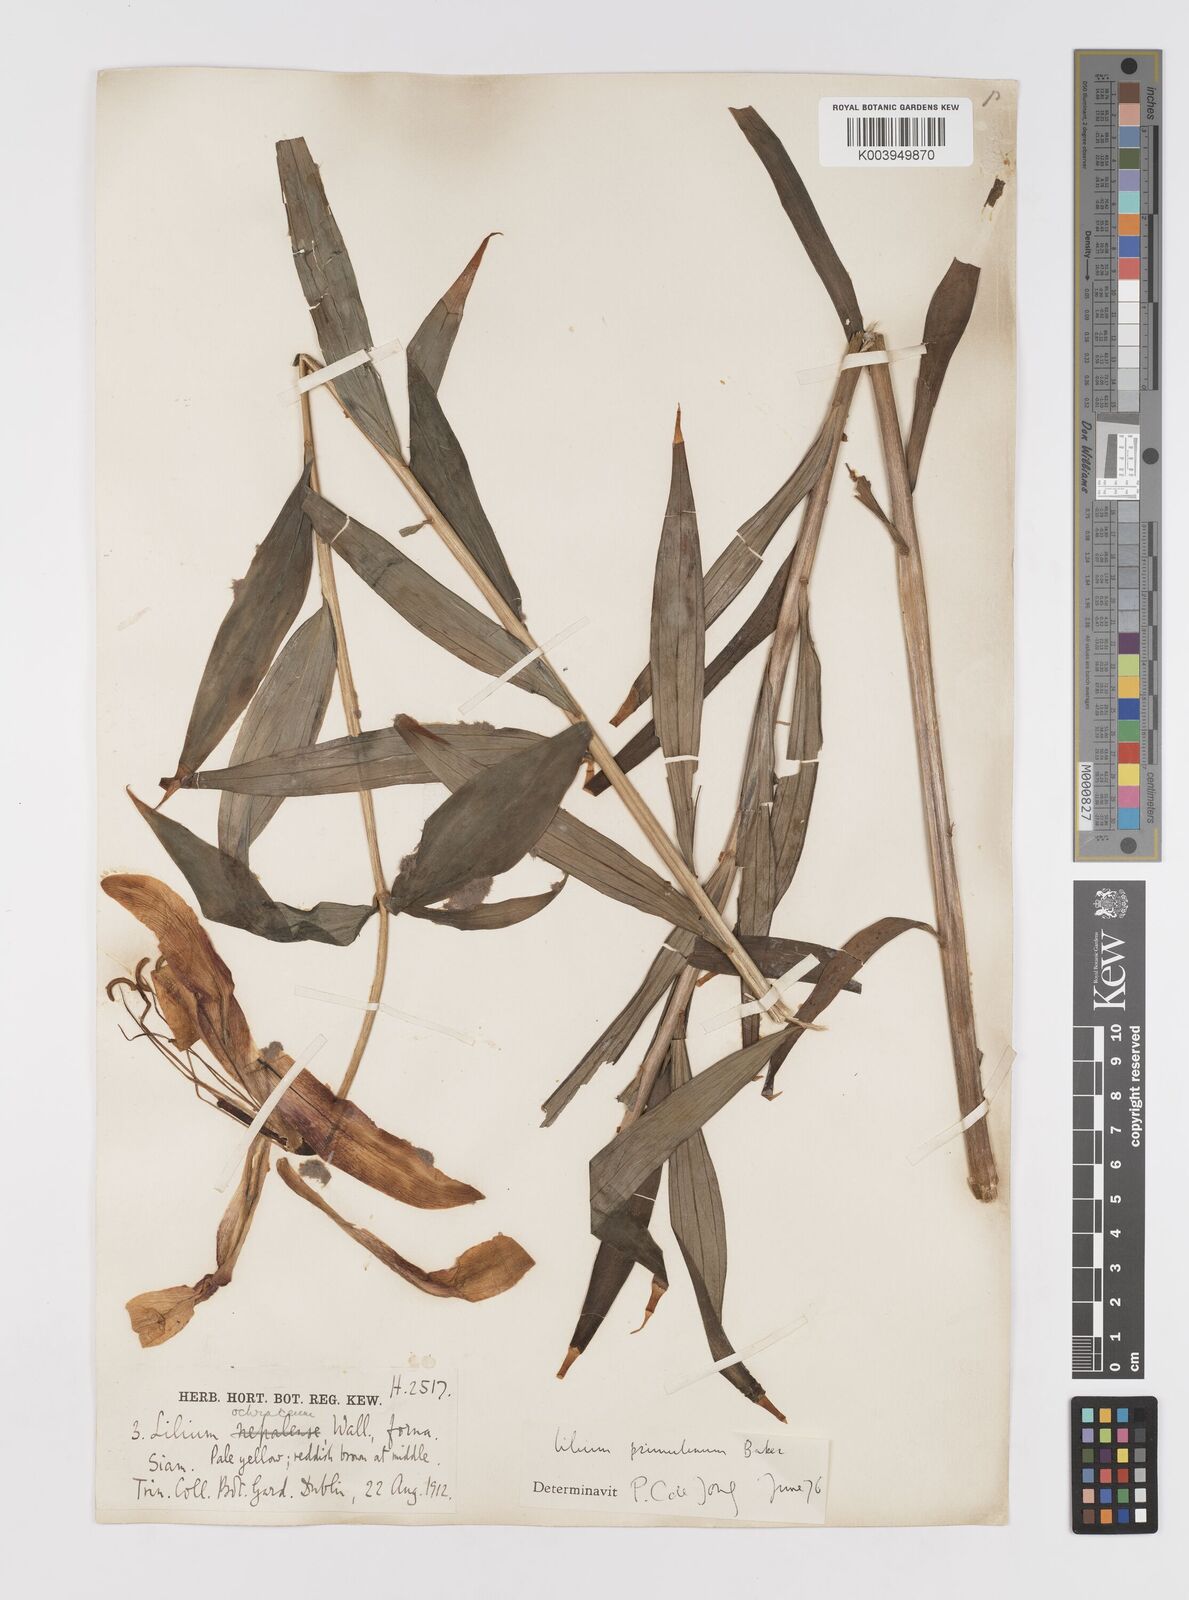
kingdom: Plantae
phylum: Tracheophyta
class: Liliopsida
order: Liliales
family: Liliaceae
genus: Lilium
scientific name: Lilium primulinum
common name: Ochre lily
